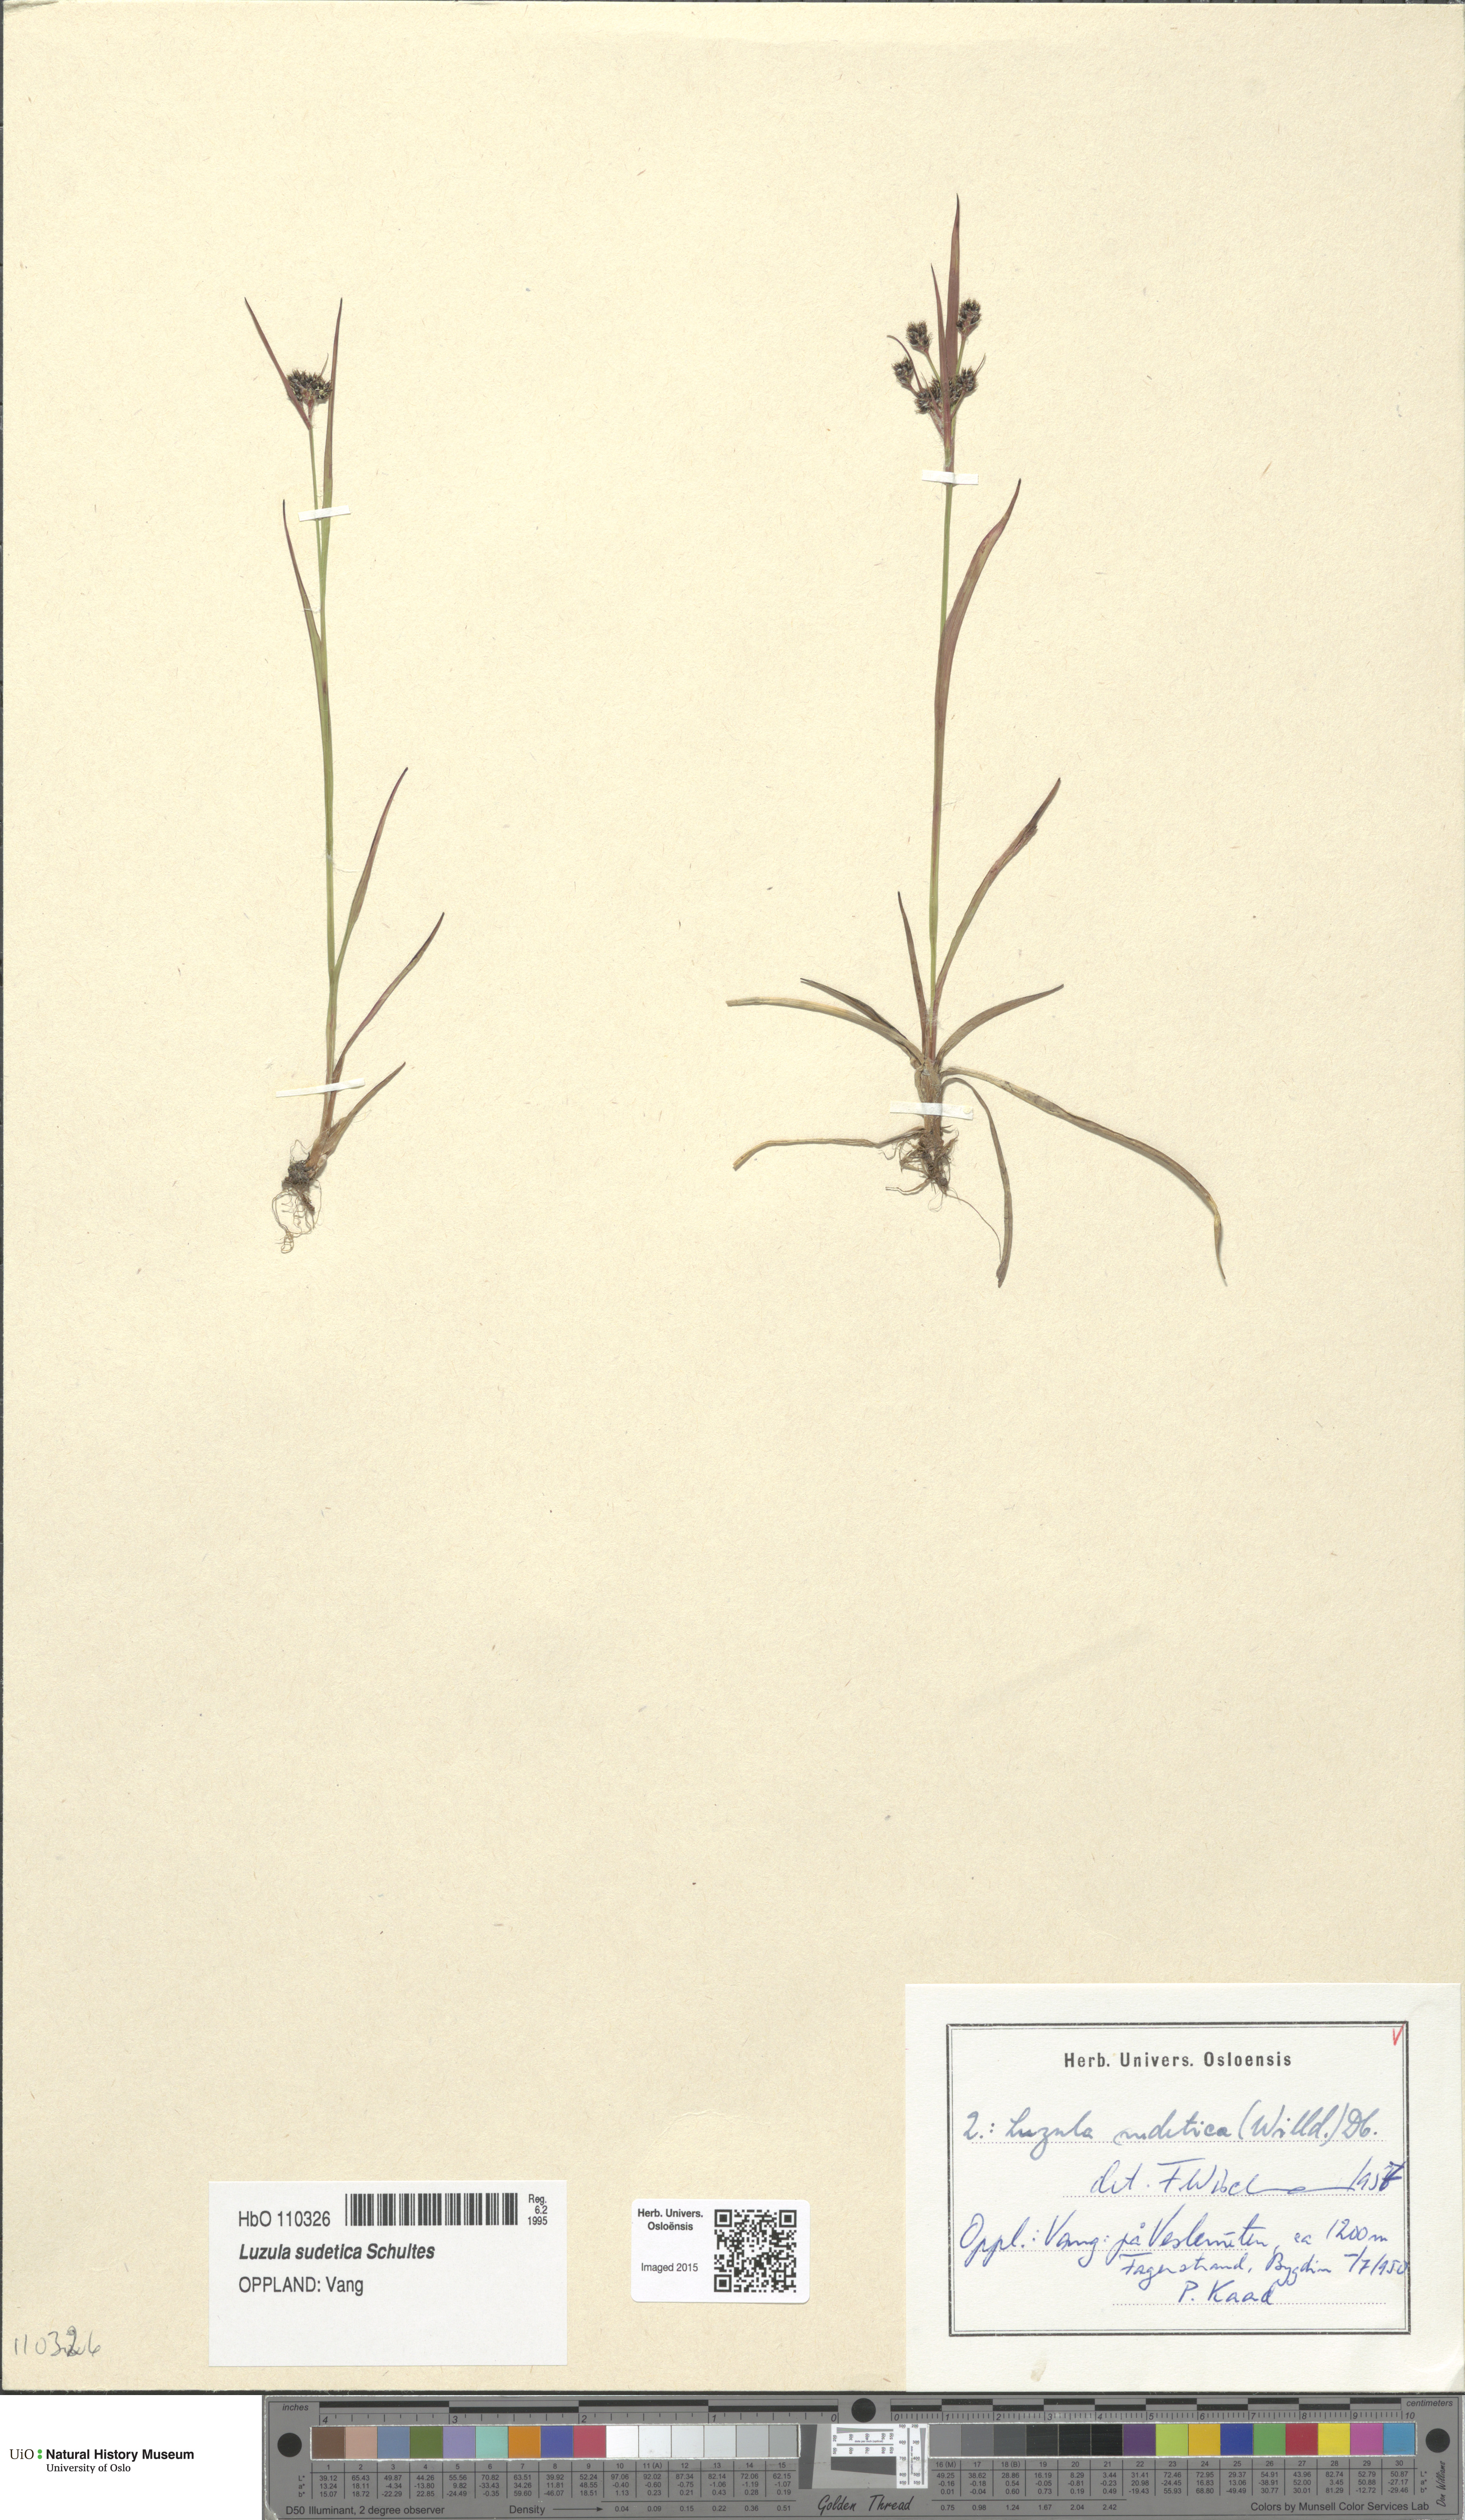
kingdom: Plantae
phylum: Tracheophyta
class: Liliopsida
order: Poales
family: Juncaceae
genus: Luzula
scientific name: Luzula sudetica
